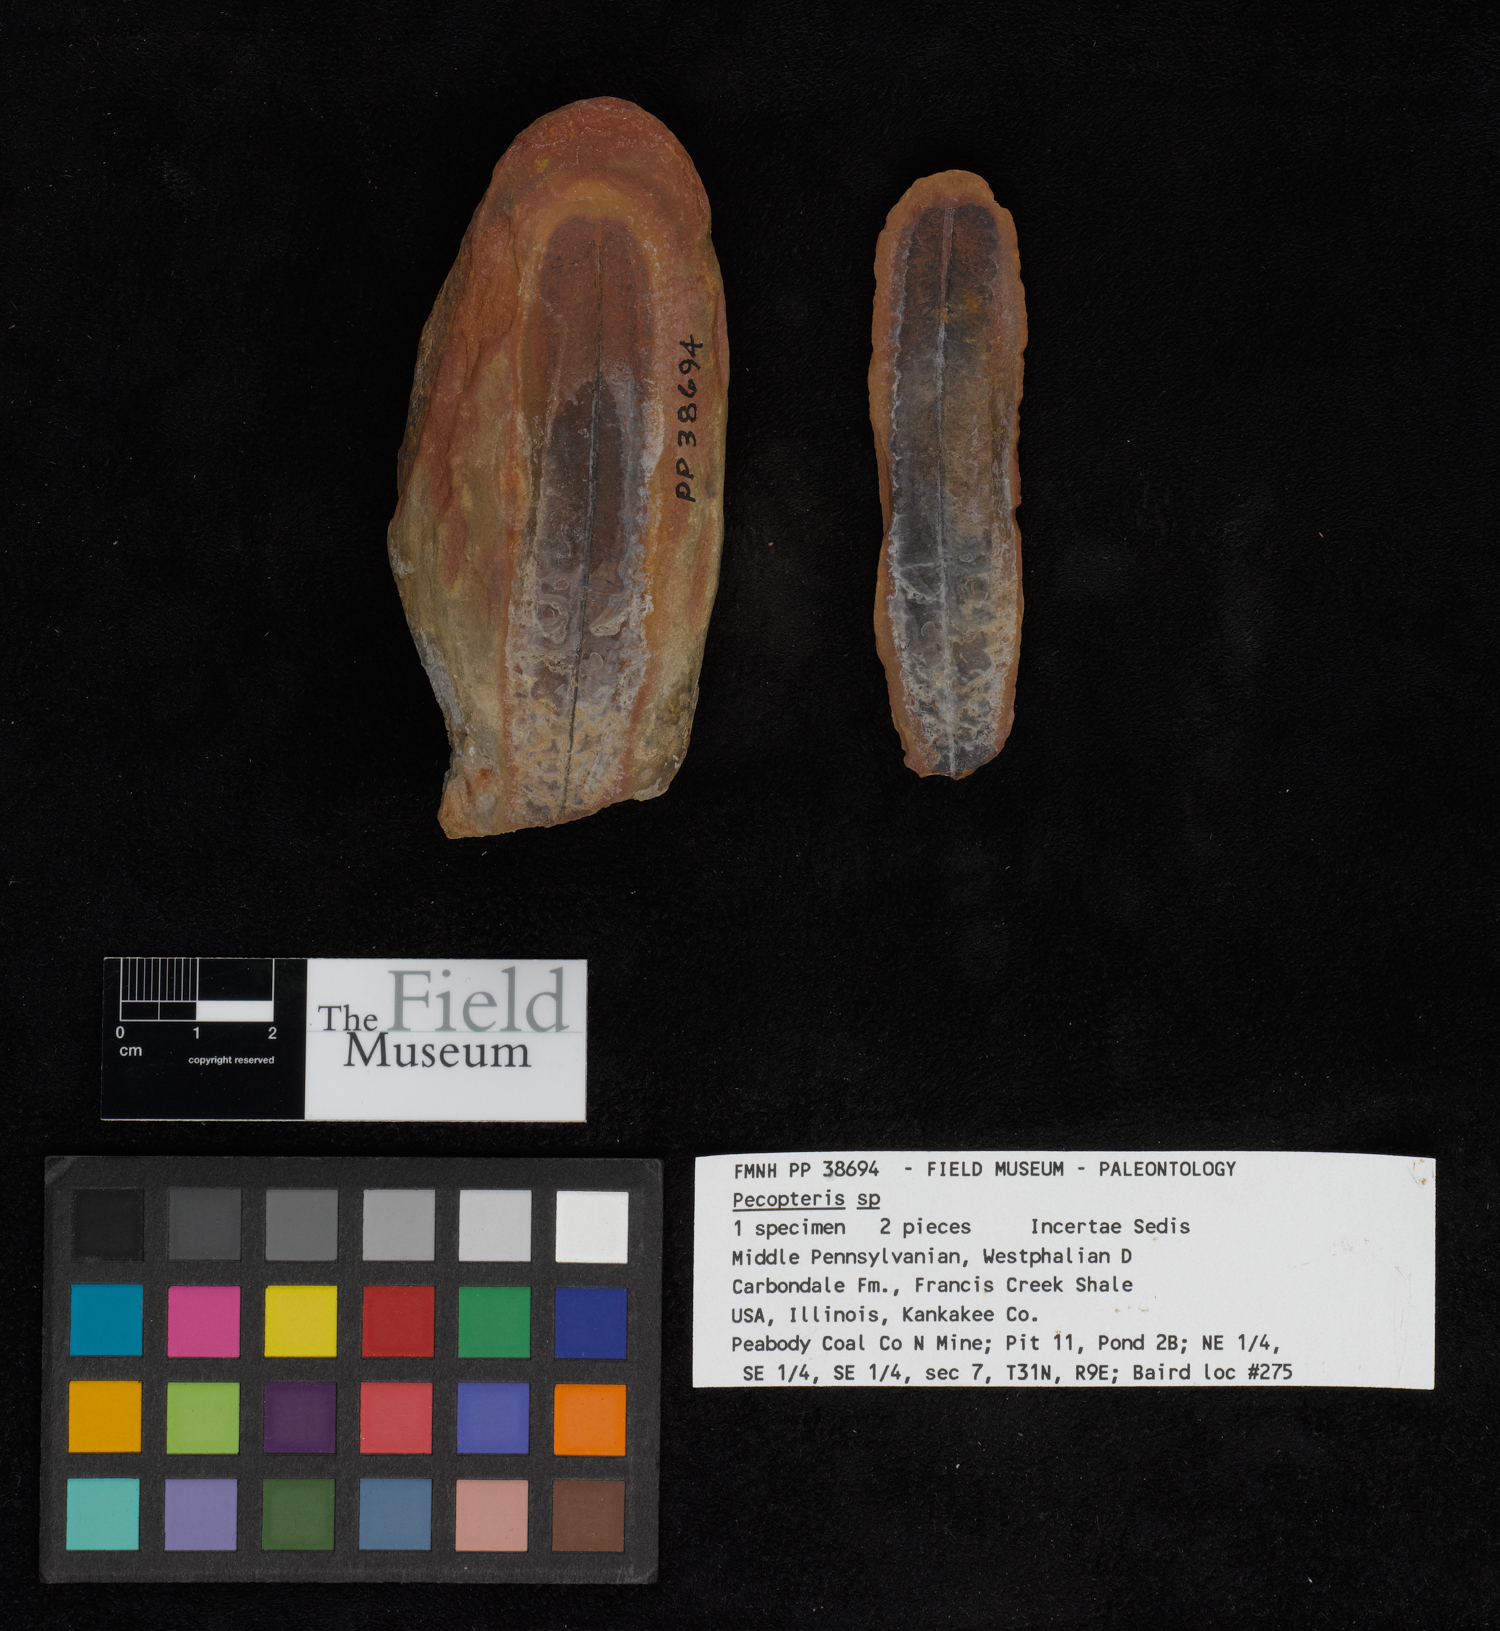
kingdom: Plantae
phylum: Tracheophyta
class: Polypodiopsida
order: Marattiales
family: Asterothecaceae
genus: Pecopteris
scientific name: Pecopteris
